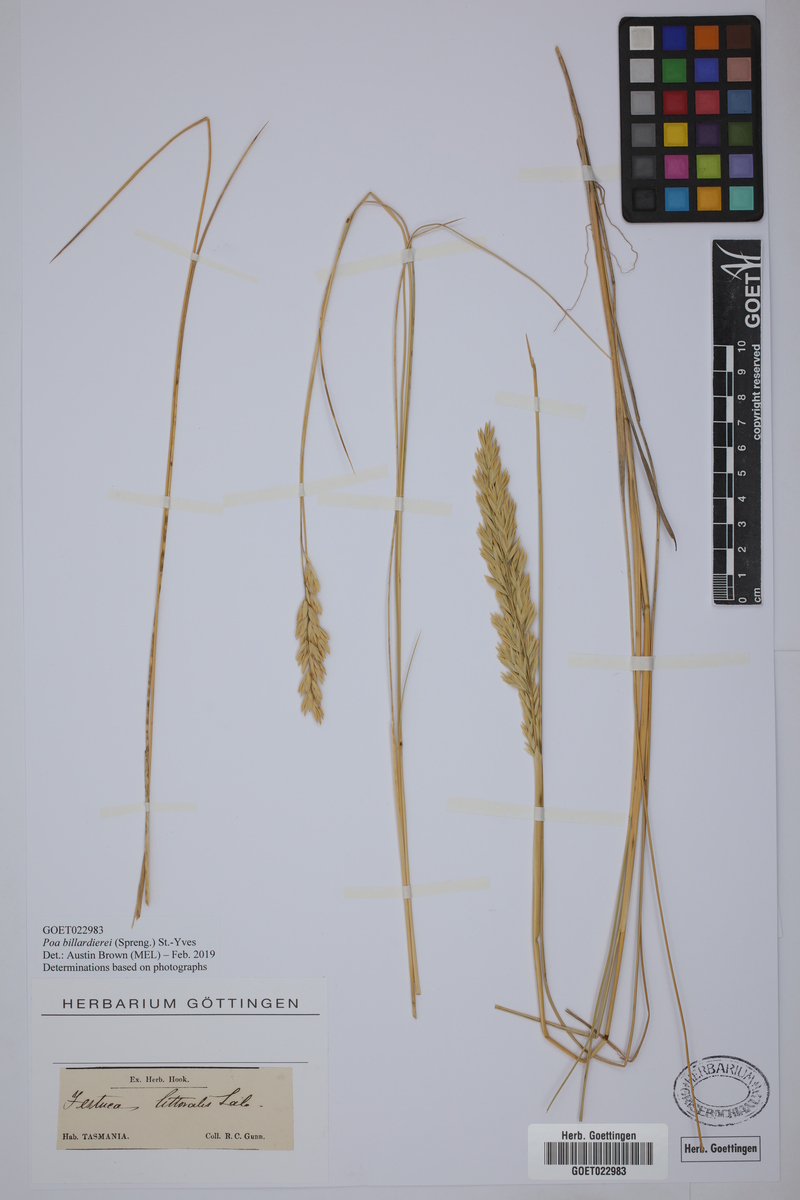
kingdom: Plantae
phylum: Tracheophyta
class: Liliopsida
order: Poales
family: Poaceae
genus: Poa
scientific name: Poa triodioides
